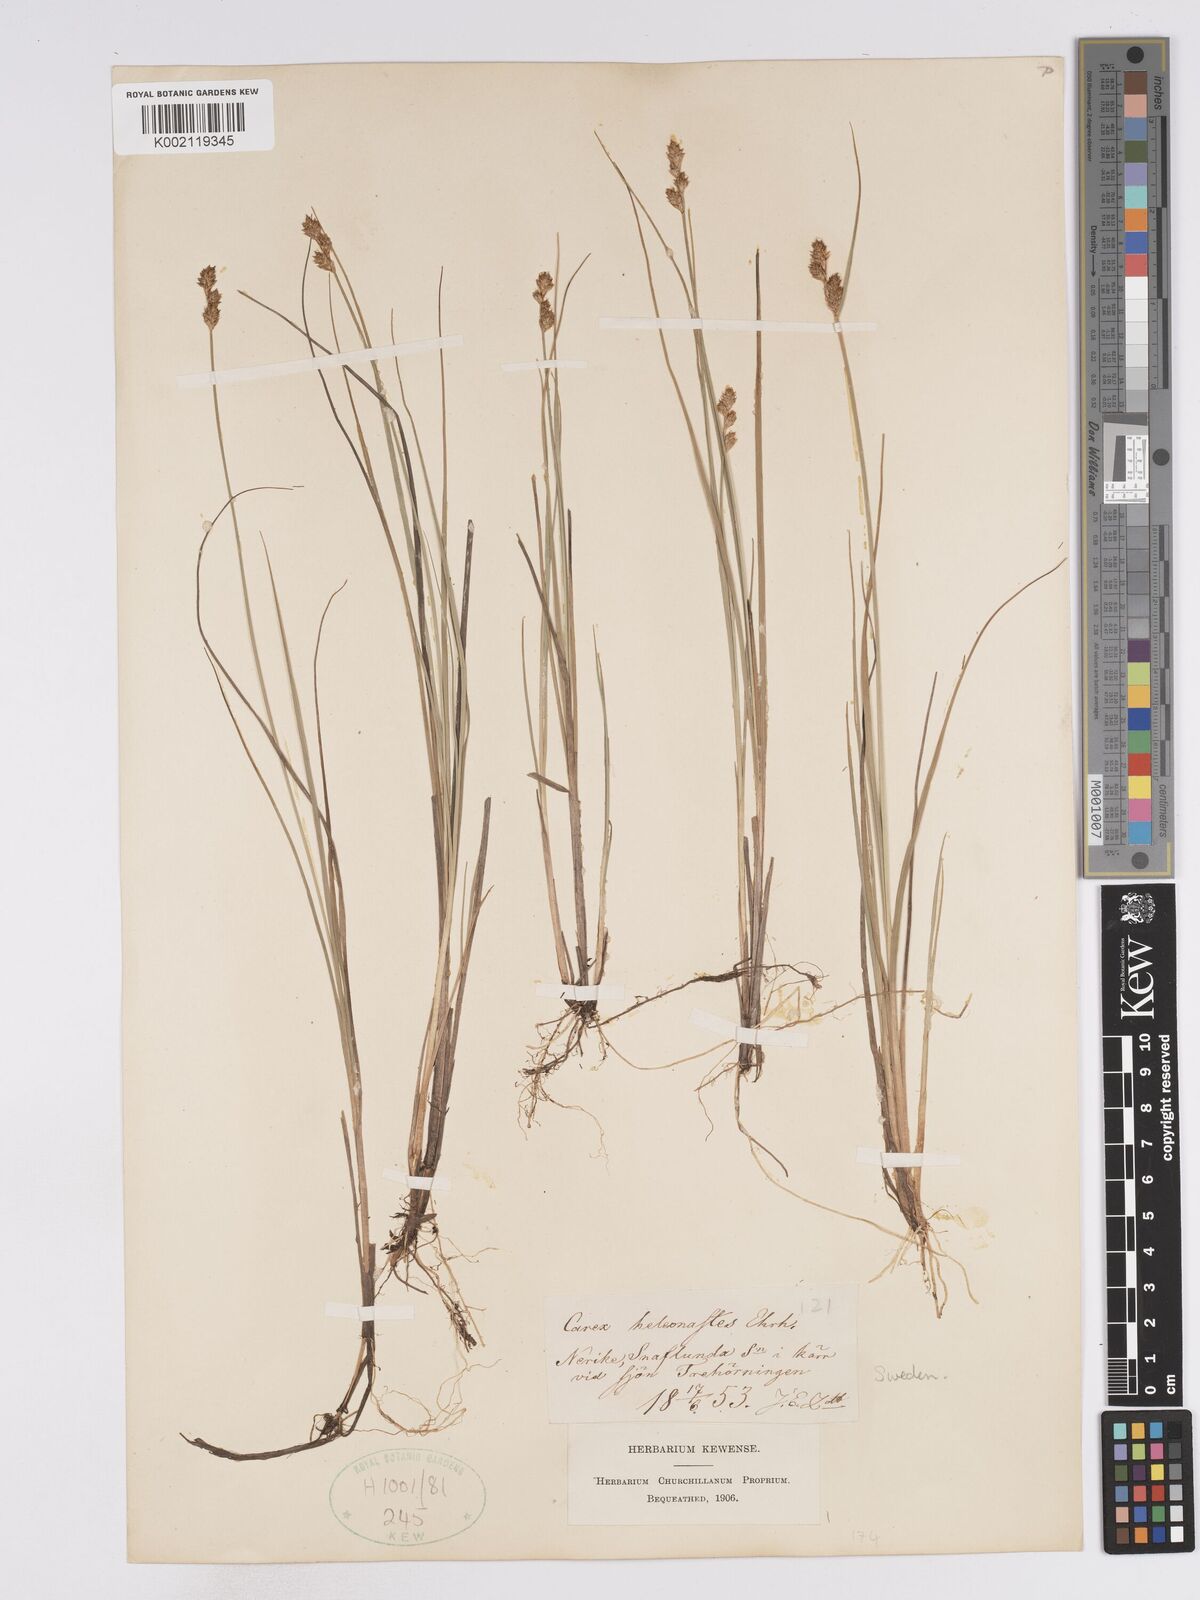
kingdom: Plantae
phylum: Tracheophyta
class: Liliopsida
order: Poales
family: Cyperaceae
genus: Carex
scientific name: Carex heleonastes
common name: Hudson bay sedge
